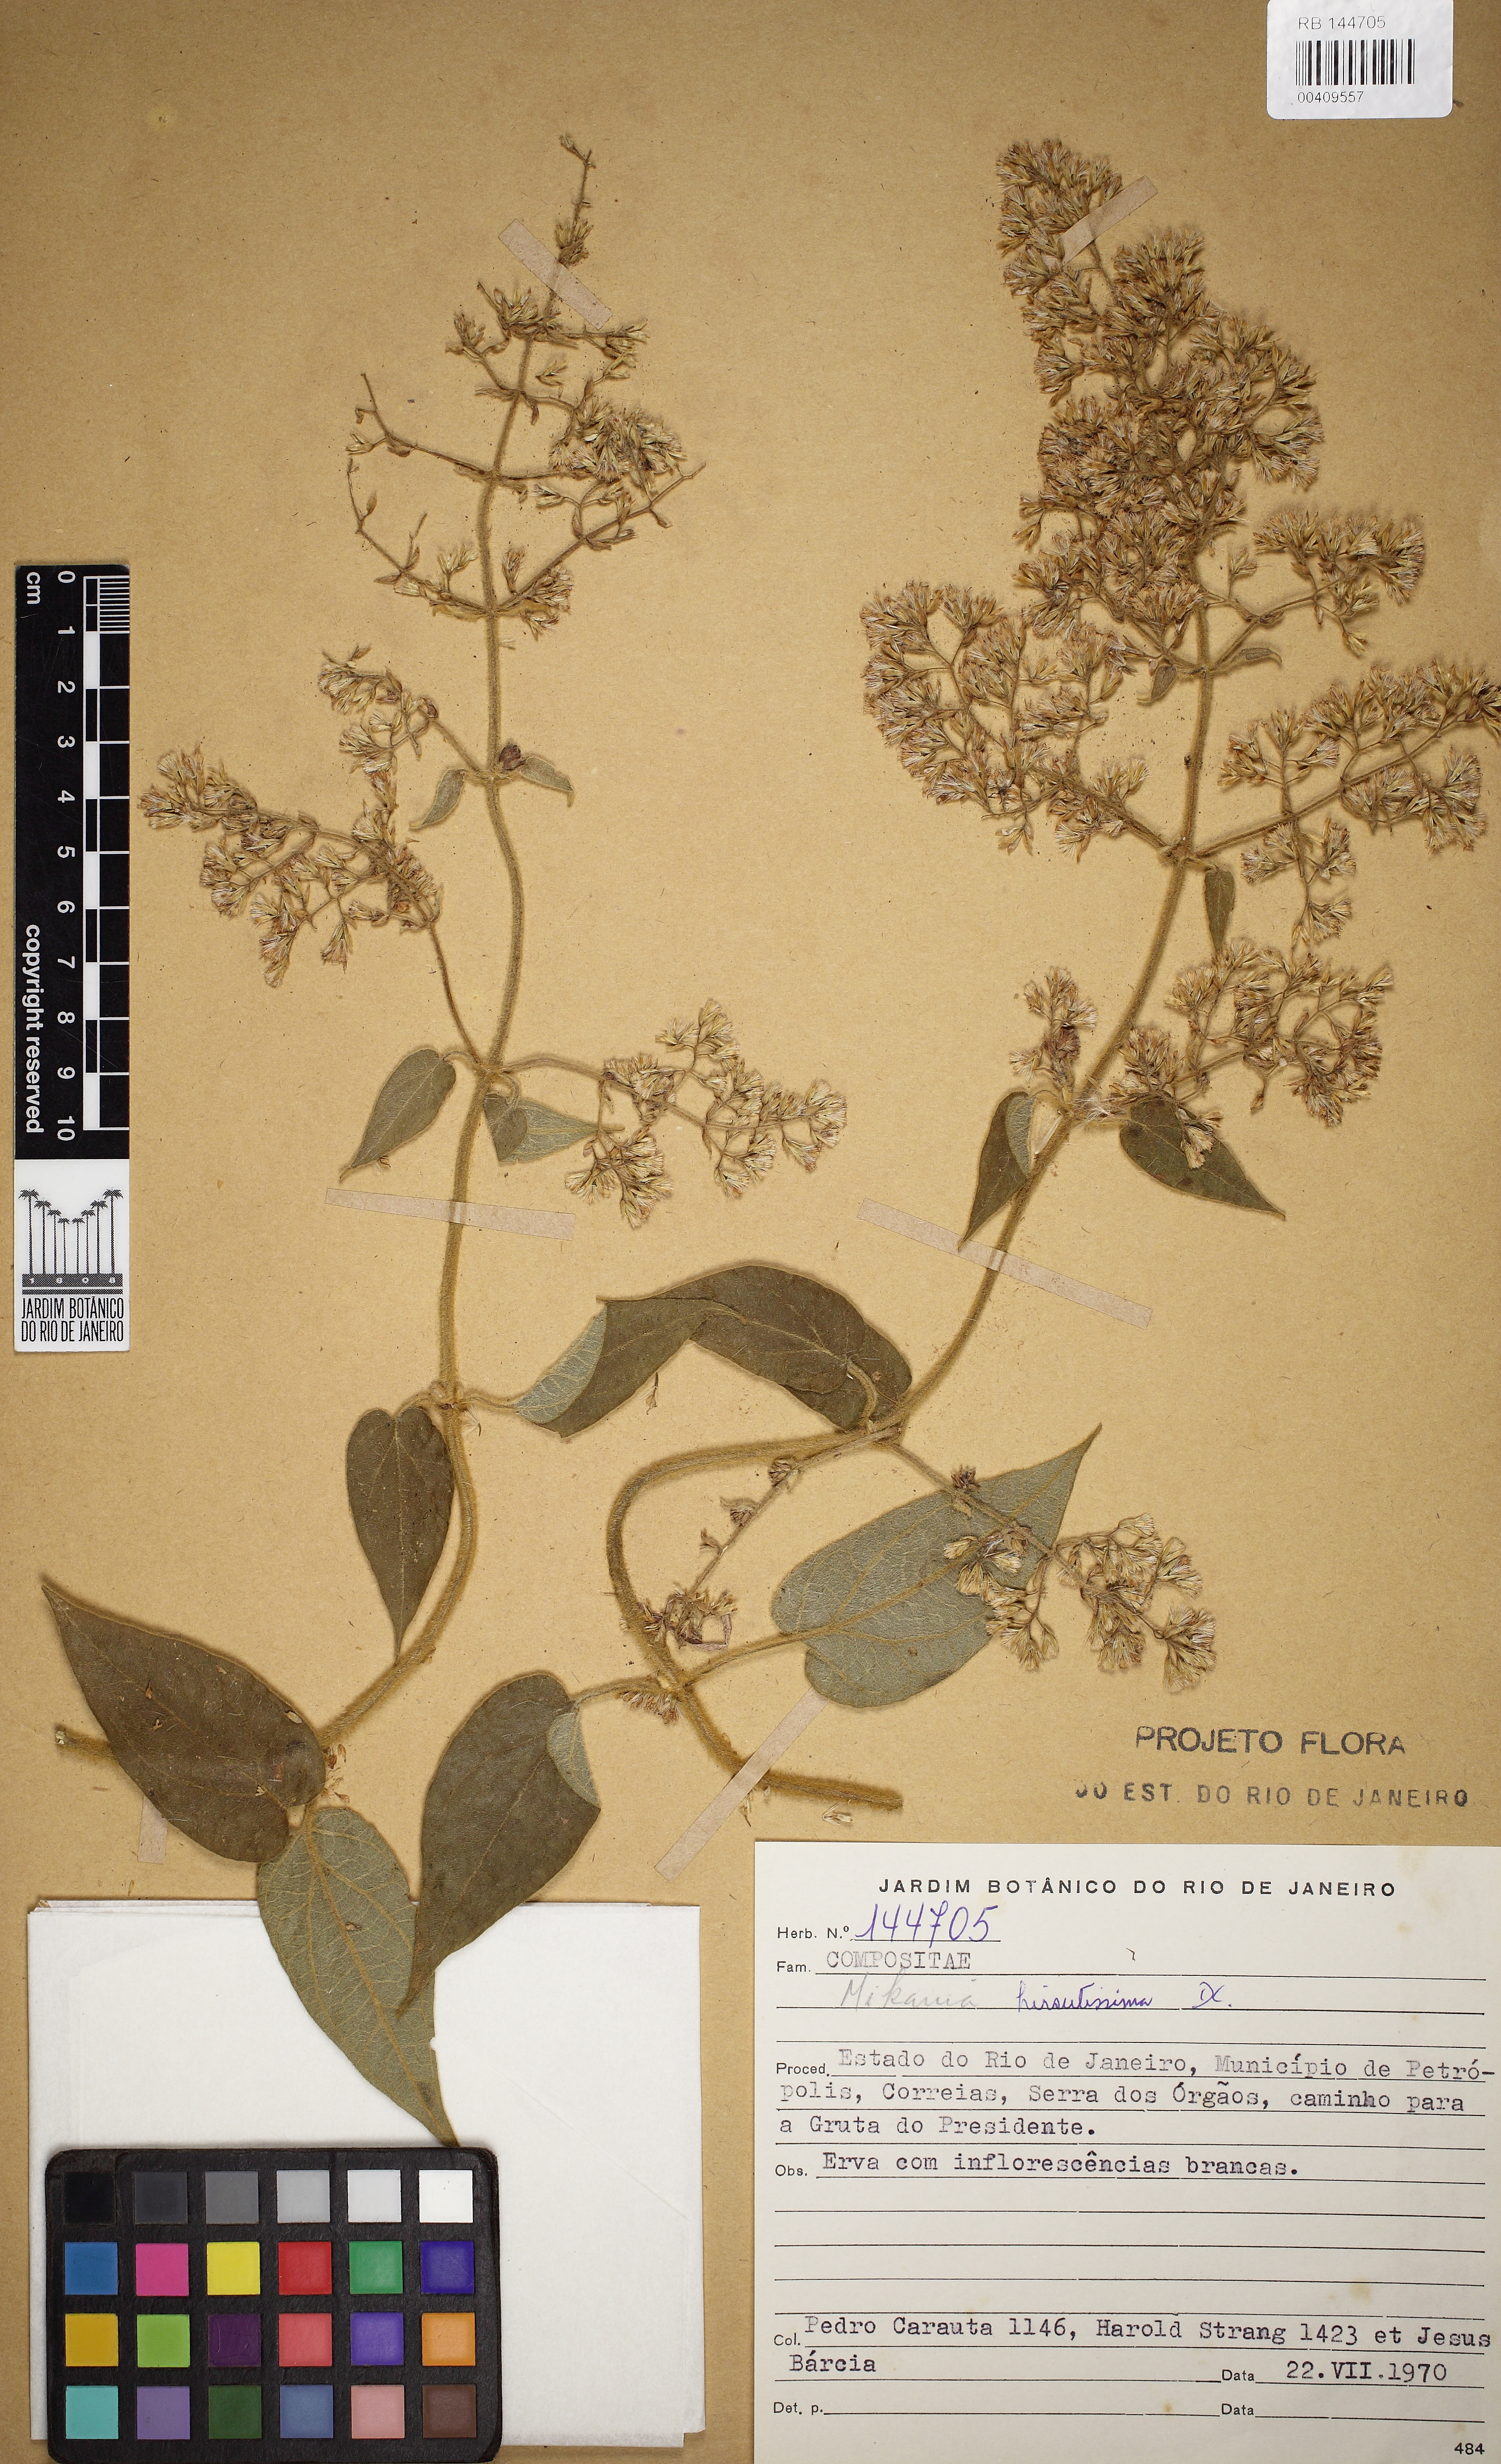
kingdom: Plantae
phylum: Tracheophyta
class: Magnoliopsida
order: Asterales
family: Asteraceae
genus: Mikania
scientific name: Mikania banisteriae
